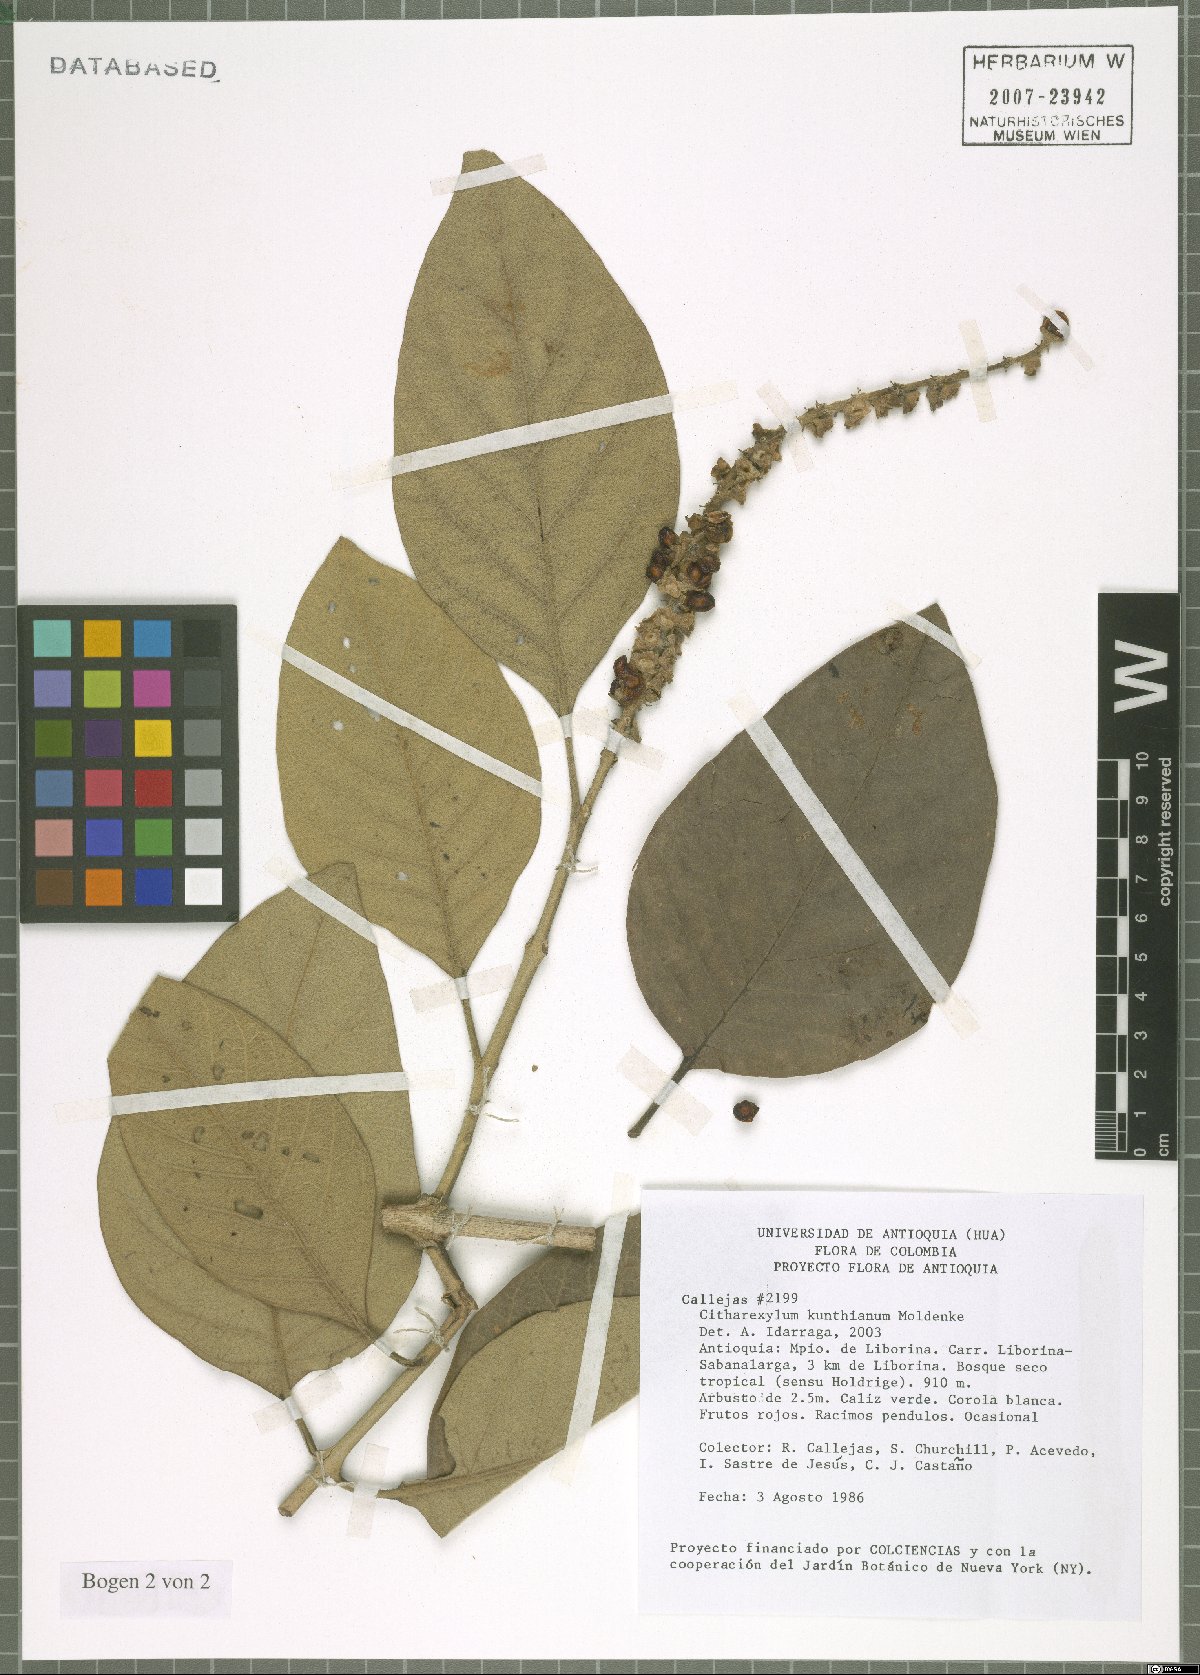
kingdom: Plantae
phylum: Tracheophyta
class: Magnoliopsida
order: Lamiales
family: Verbenaceae
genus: Citharexylum
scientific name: Citharexylum kunthianum
